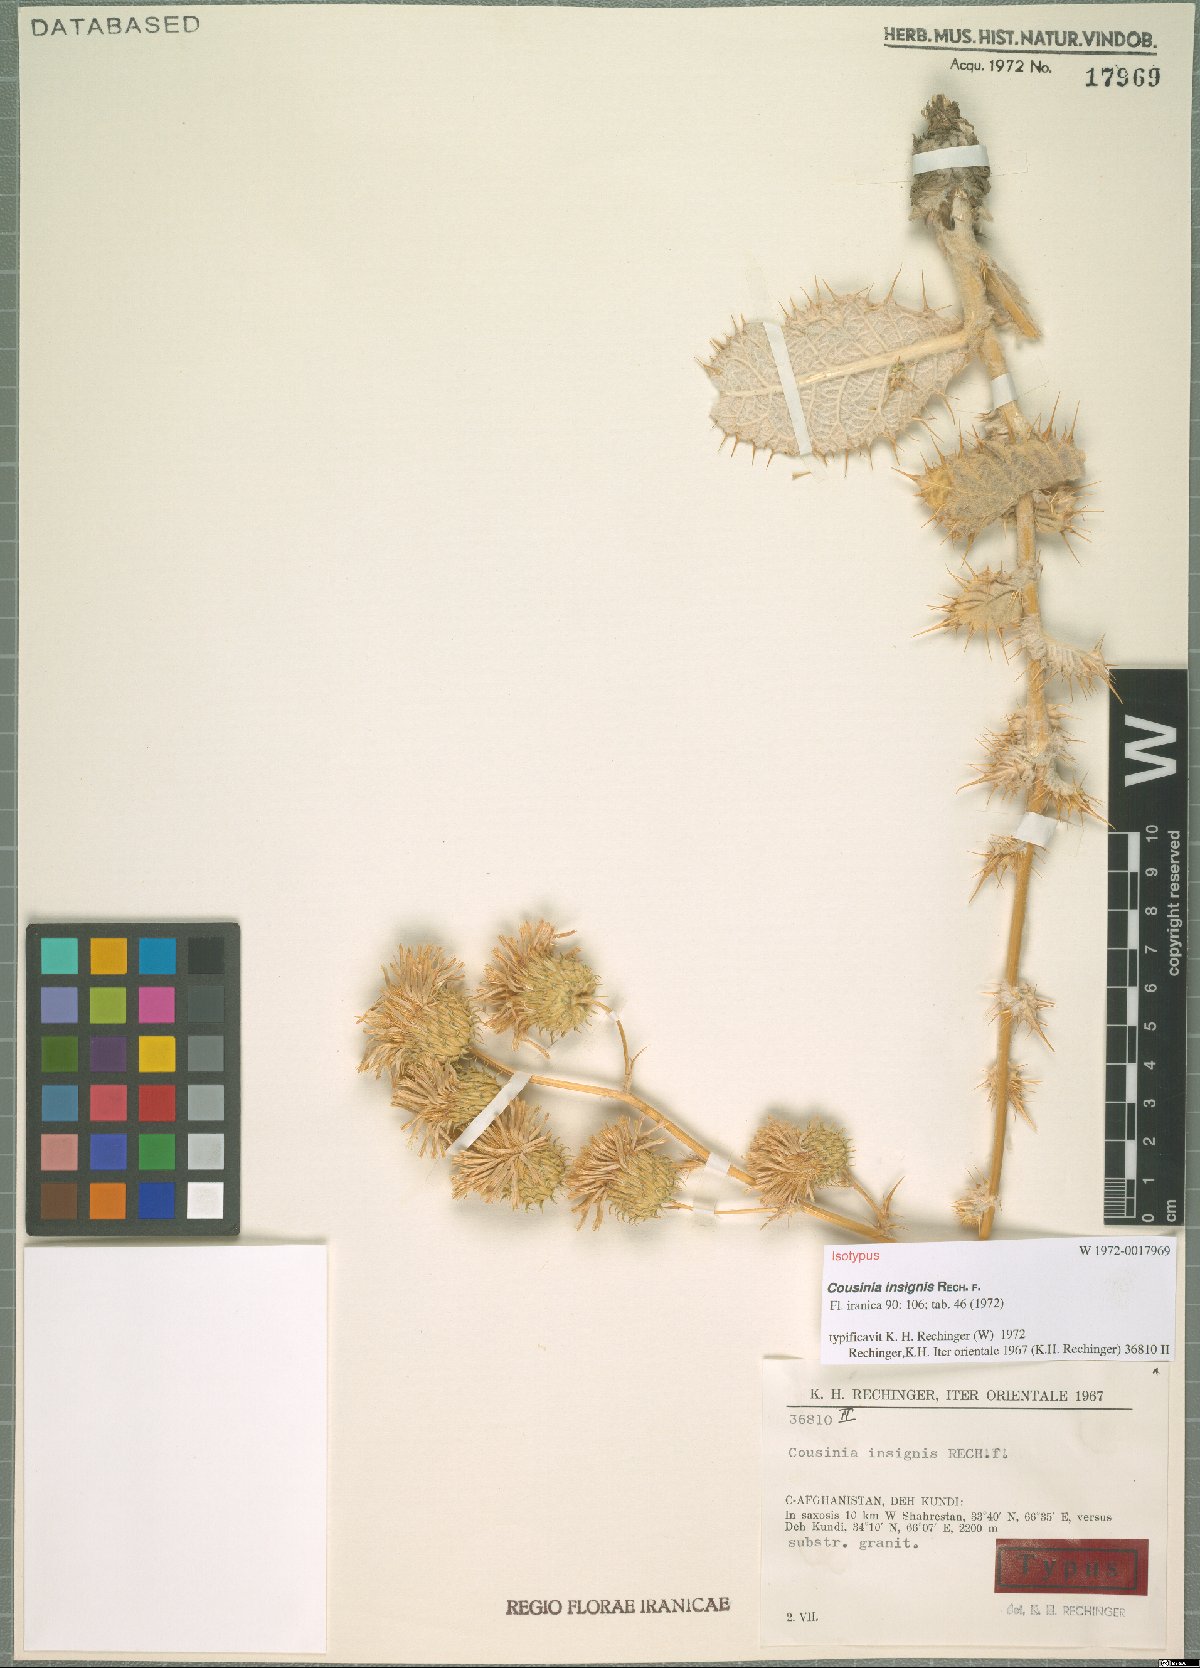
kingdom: Plantae
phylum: Tracheophyta
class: Magnoliopsida
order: Asterales
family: Asteraceae
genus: Cousinia
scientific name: Cousinia insignis
